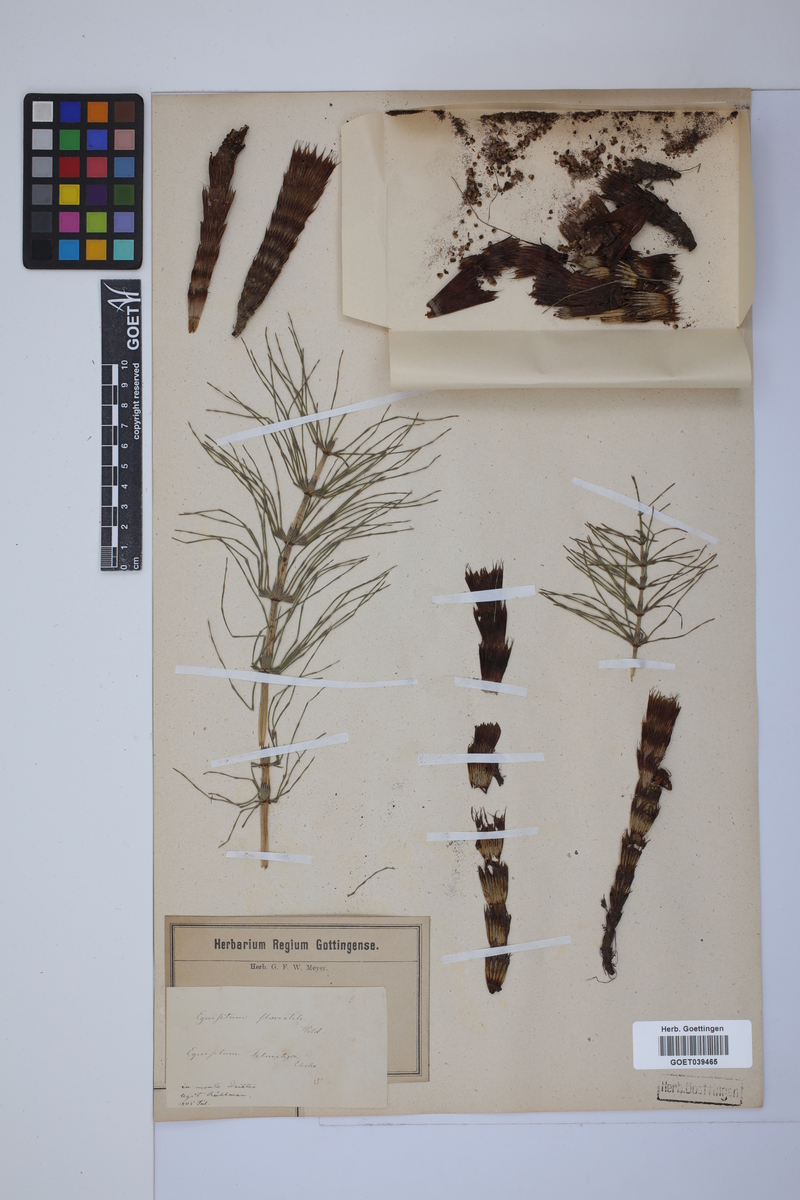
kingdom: Plantae
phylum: Tracheophyta
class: Polypodiopsida
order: Equisetales
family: Equisetaceae
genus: Equisetum
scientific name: Equisetum telmateia
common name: Great horsetail
